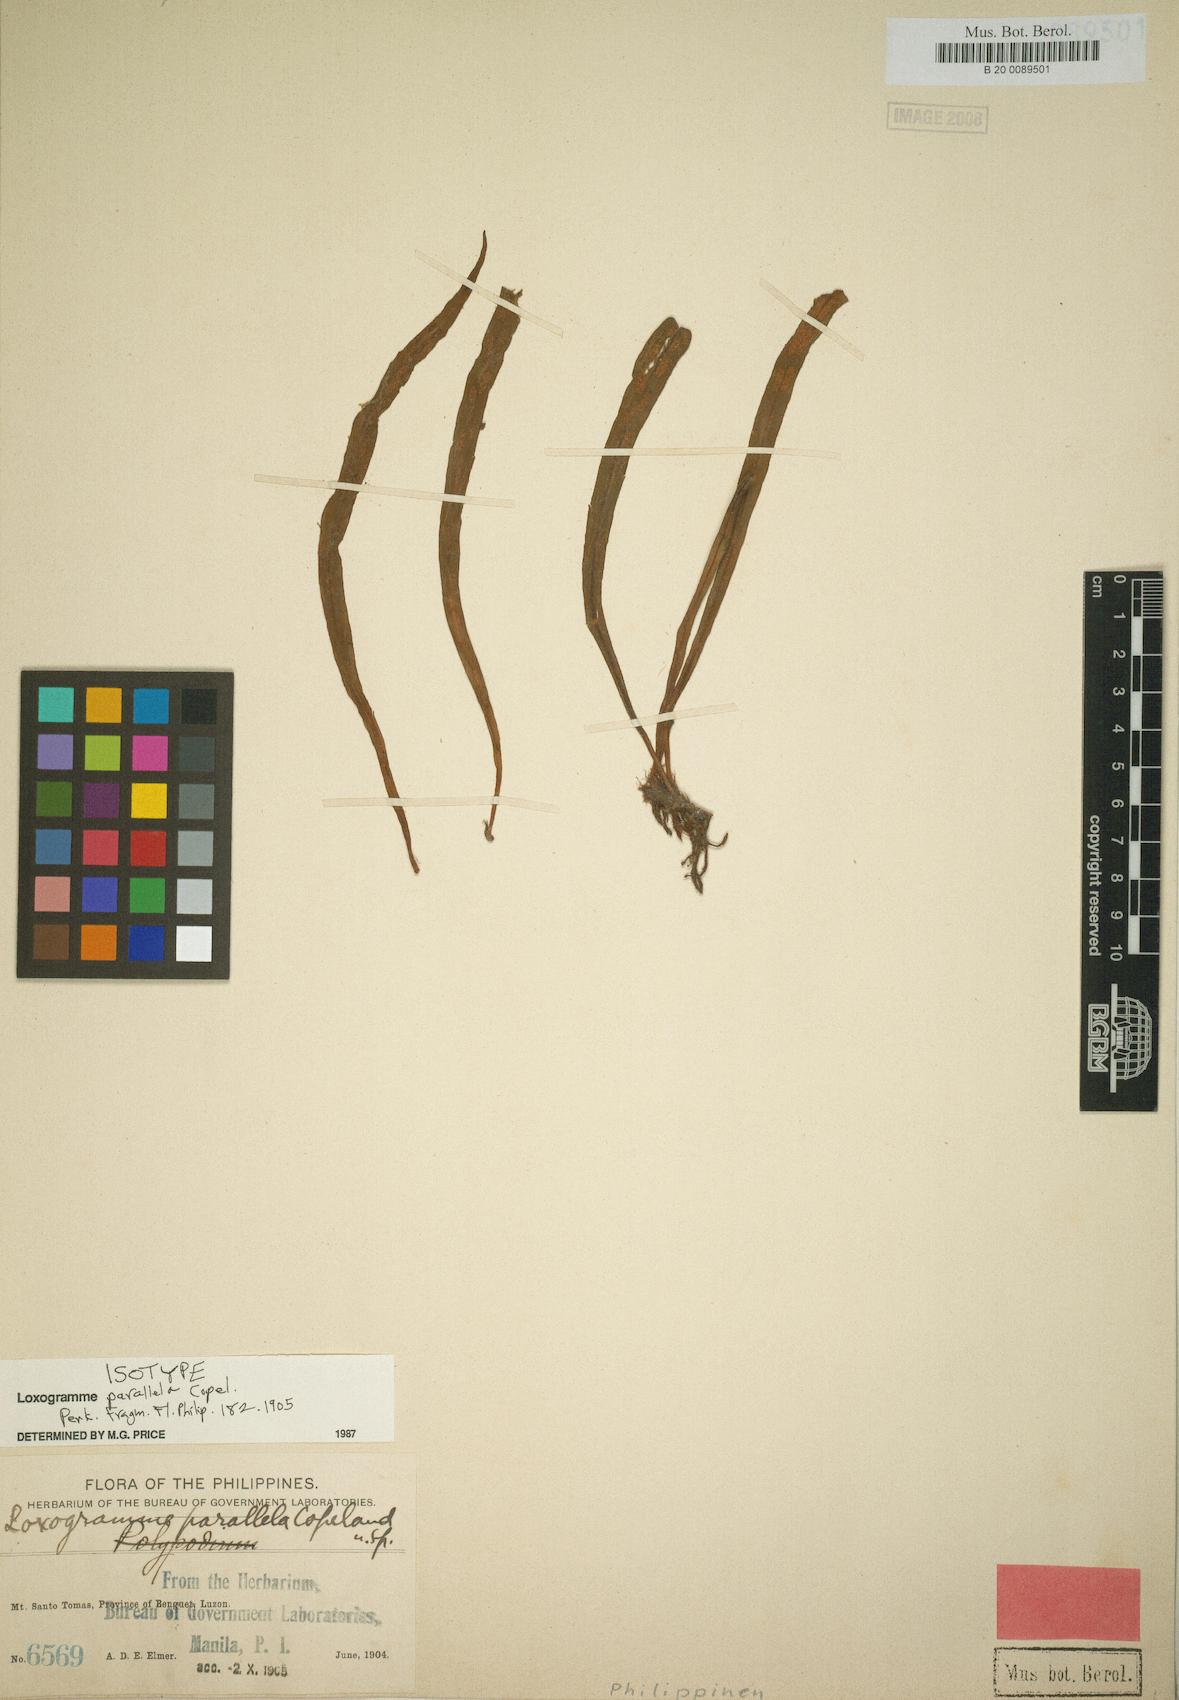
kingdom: Plantae
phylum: Tracheophyta
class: Polypodiopsida
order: Polypodiales
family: Polypodiaceae
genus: Loxogramme
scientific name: Loxogramme parallela
